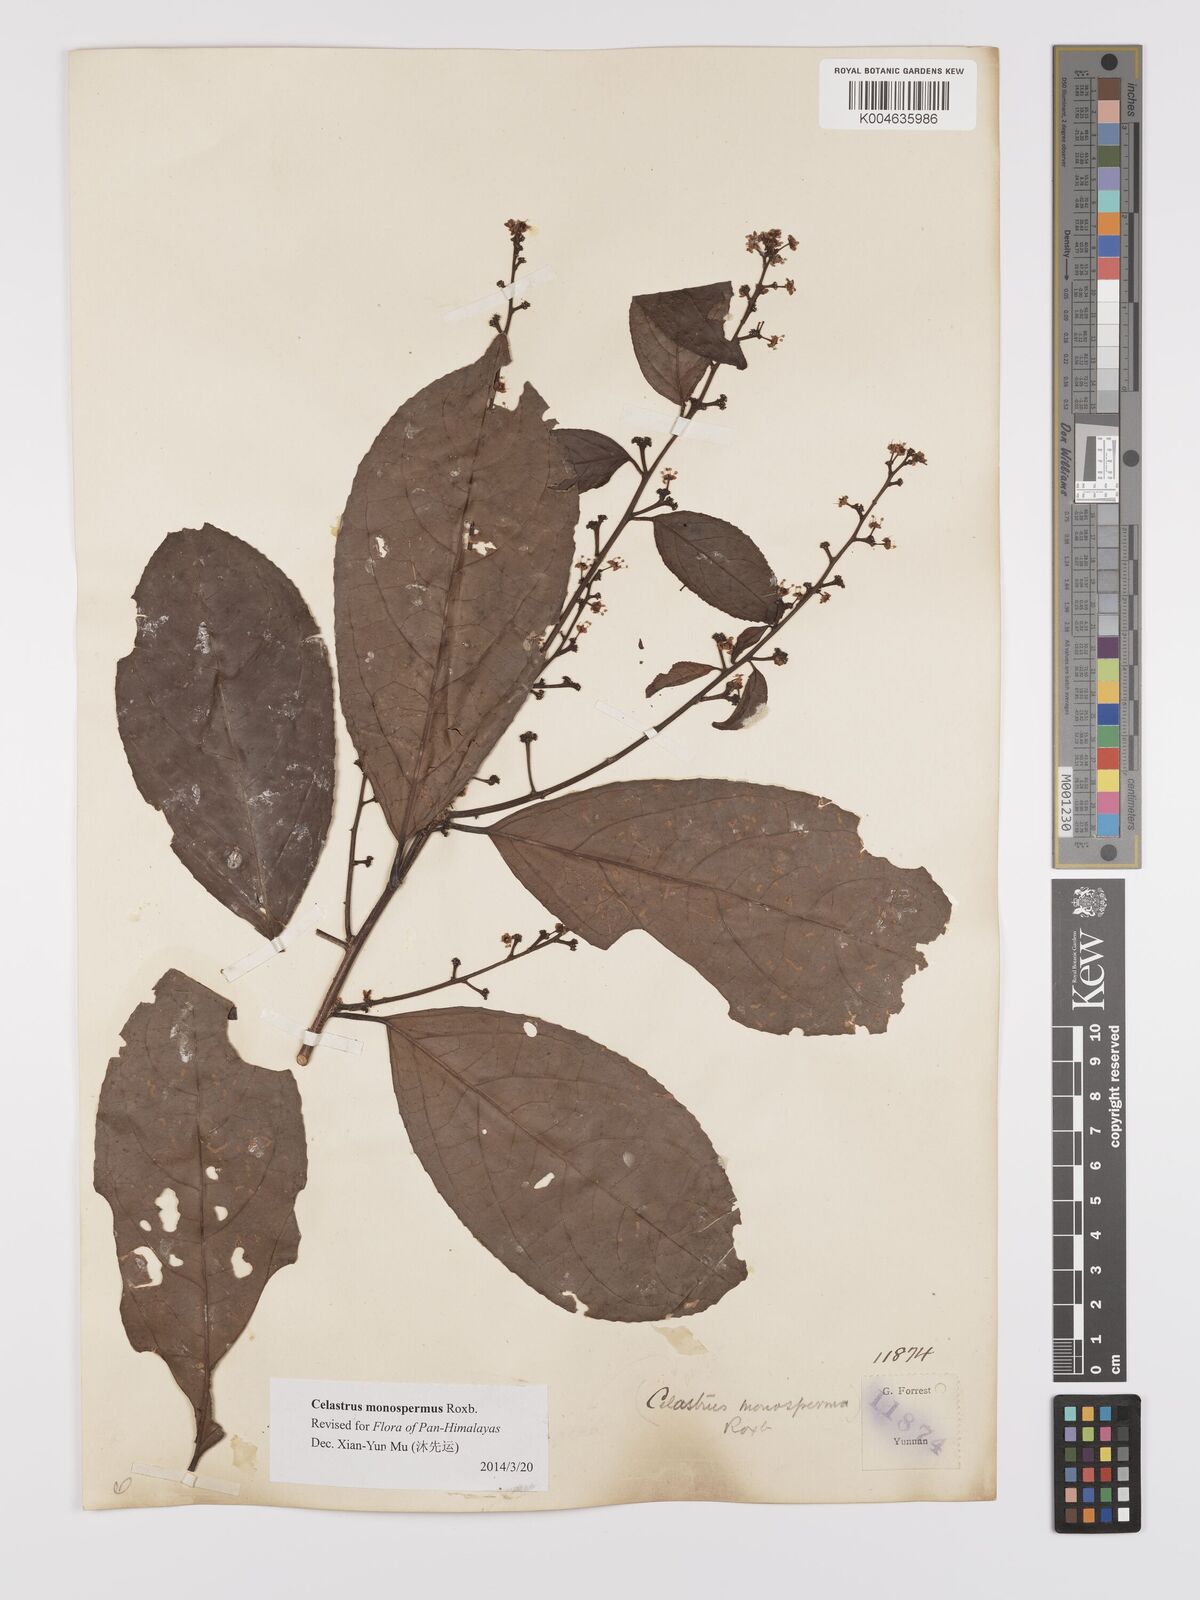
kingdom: Plantae
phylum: Tracheophyta
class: Magnoliopsida
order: Celastrales
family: Celastraceae
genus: Celastrus
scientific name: Celastrus monospermus
